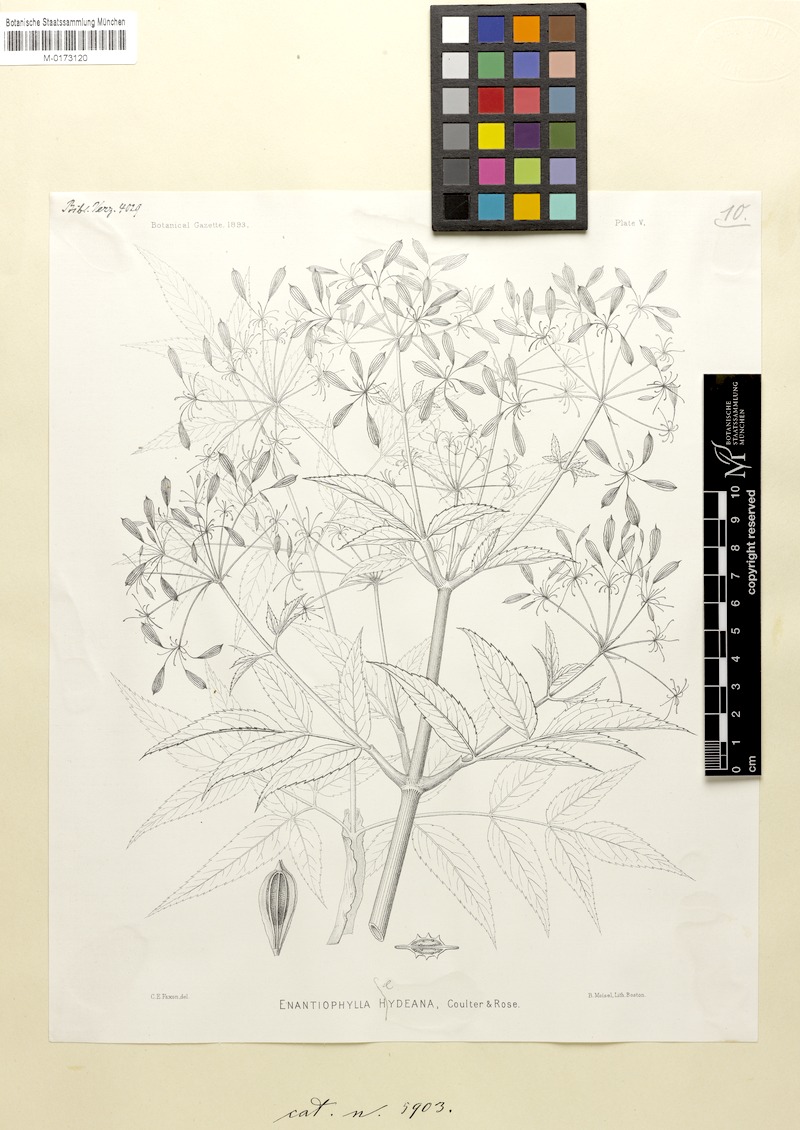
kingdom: Plantae
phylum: Tracheophyta
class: Magnoliopsida
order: Apiales
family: Apiaceae
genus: Enantiophylla
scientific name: Enantiophylla heydeana
